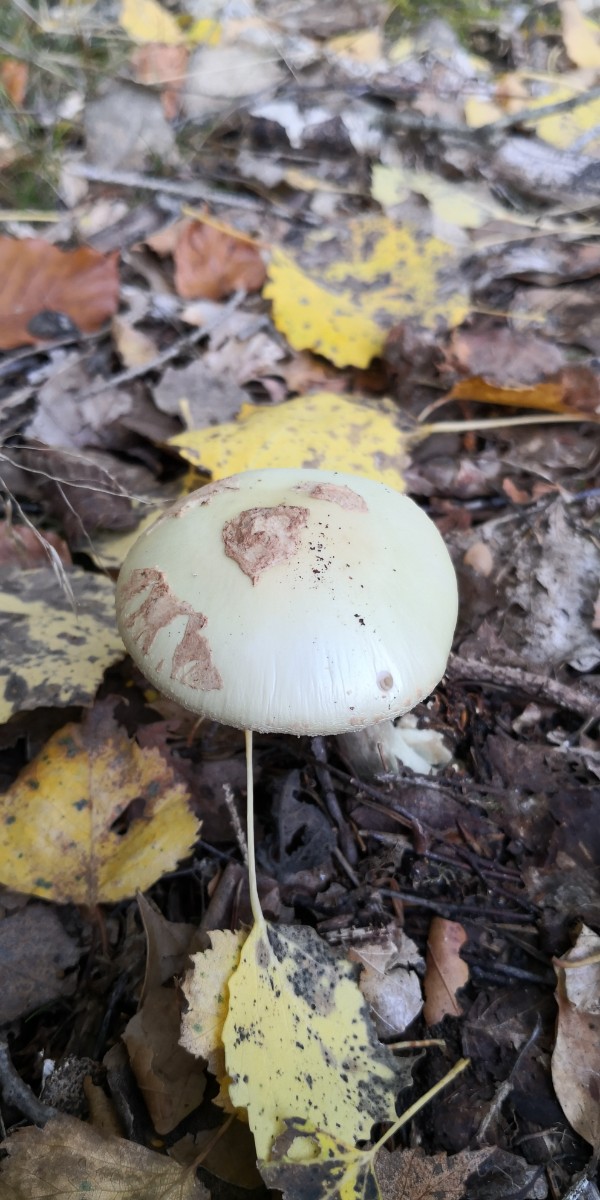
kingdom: Fungi
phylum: Basidiomycota
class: Agaricomycetes
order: Agaricales
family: Amanitaceae
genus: Amanita
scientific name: Amanita citrina
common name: kugleknoldet fluesvamp
